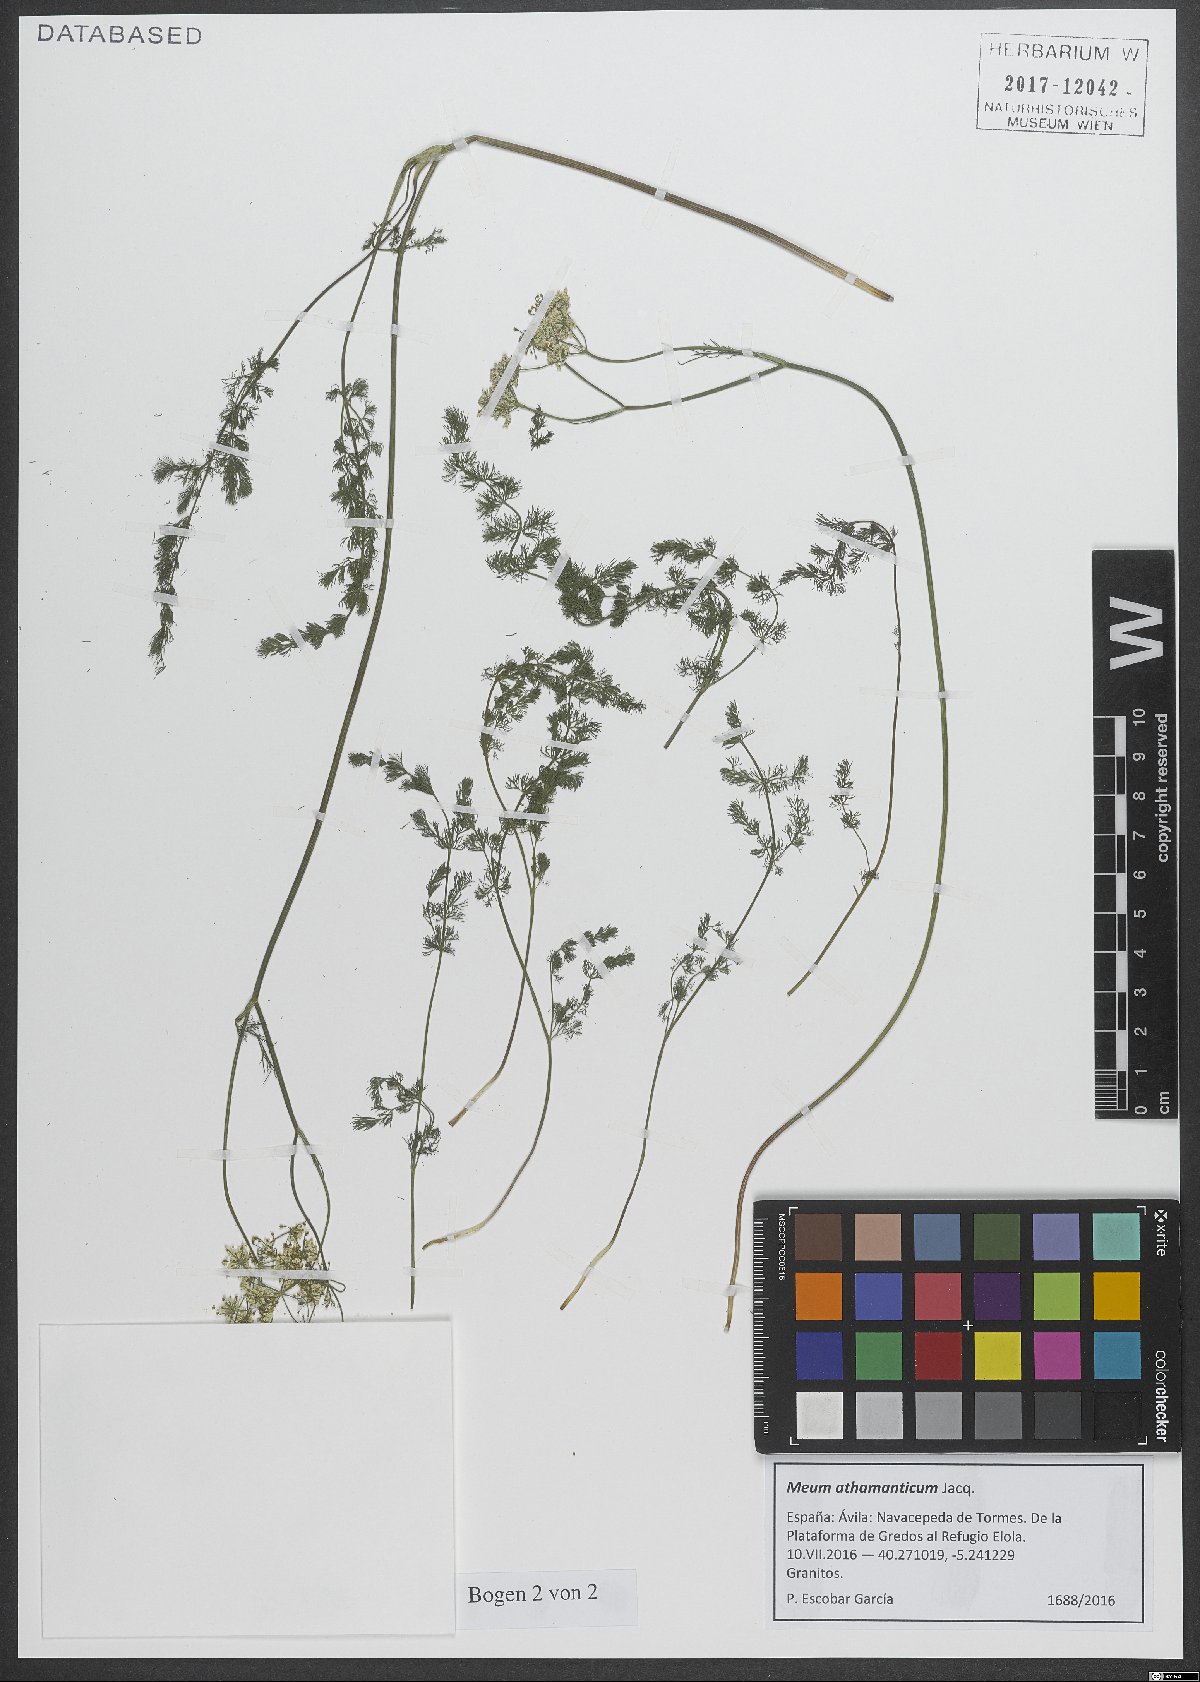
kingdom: Plantae
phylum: Tracheophyta
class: Magnoliopsida
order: Apiales
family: Apiaceae
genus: Meum
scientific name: Meum athamanticum
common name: Spignel
